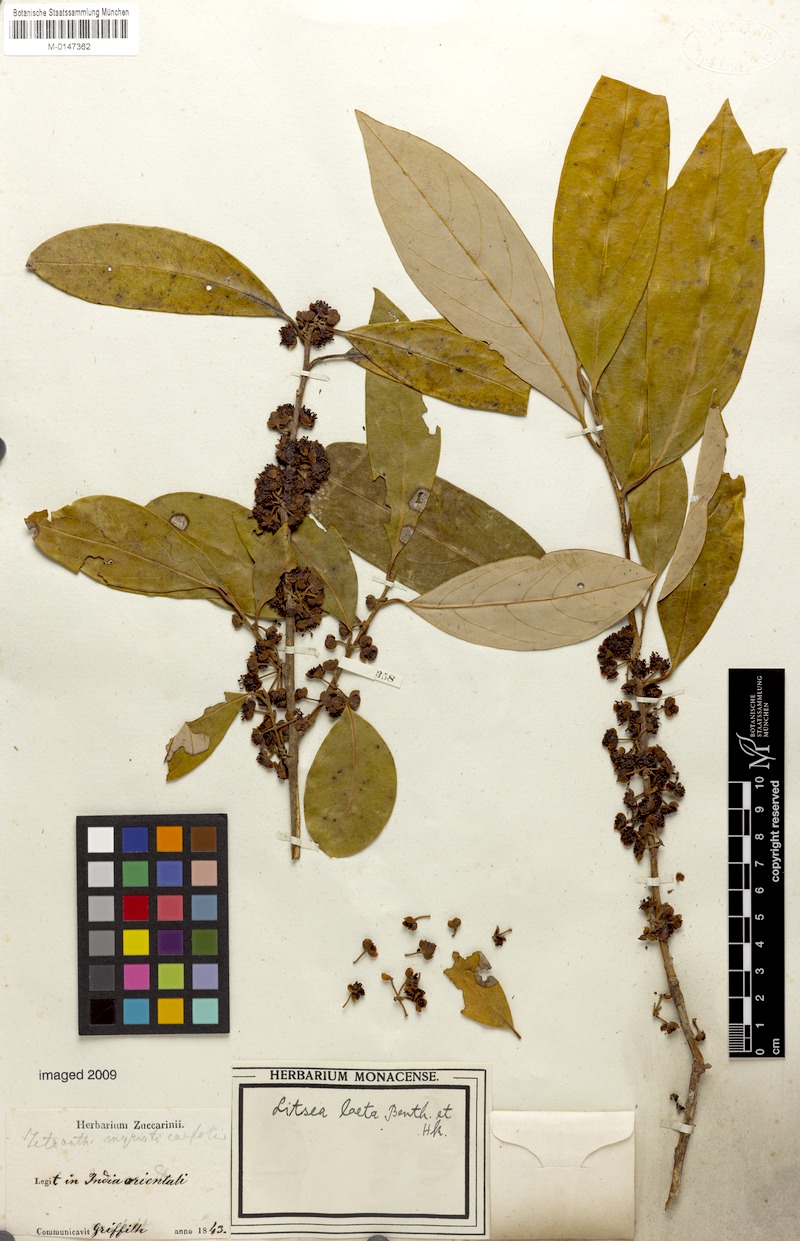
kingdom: Plantae
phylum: Tracheophyta
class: Magnoliopsida
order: Laurales
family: Lauraceae
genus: Litsea
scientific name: Litsea myristicifolia
